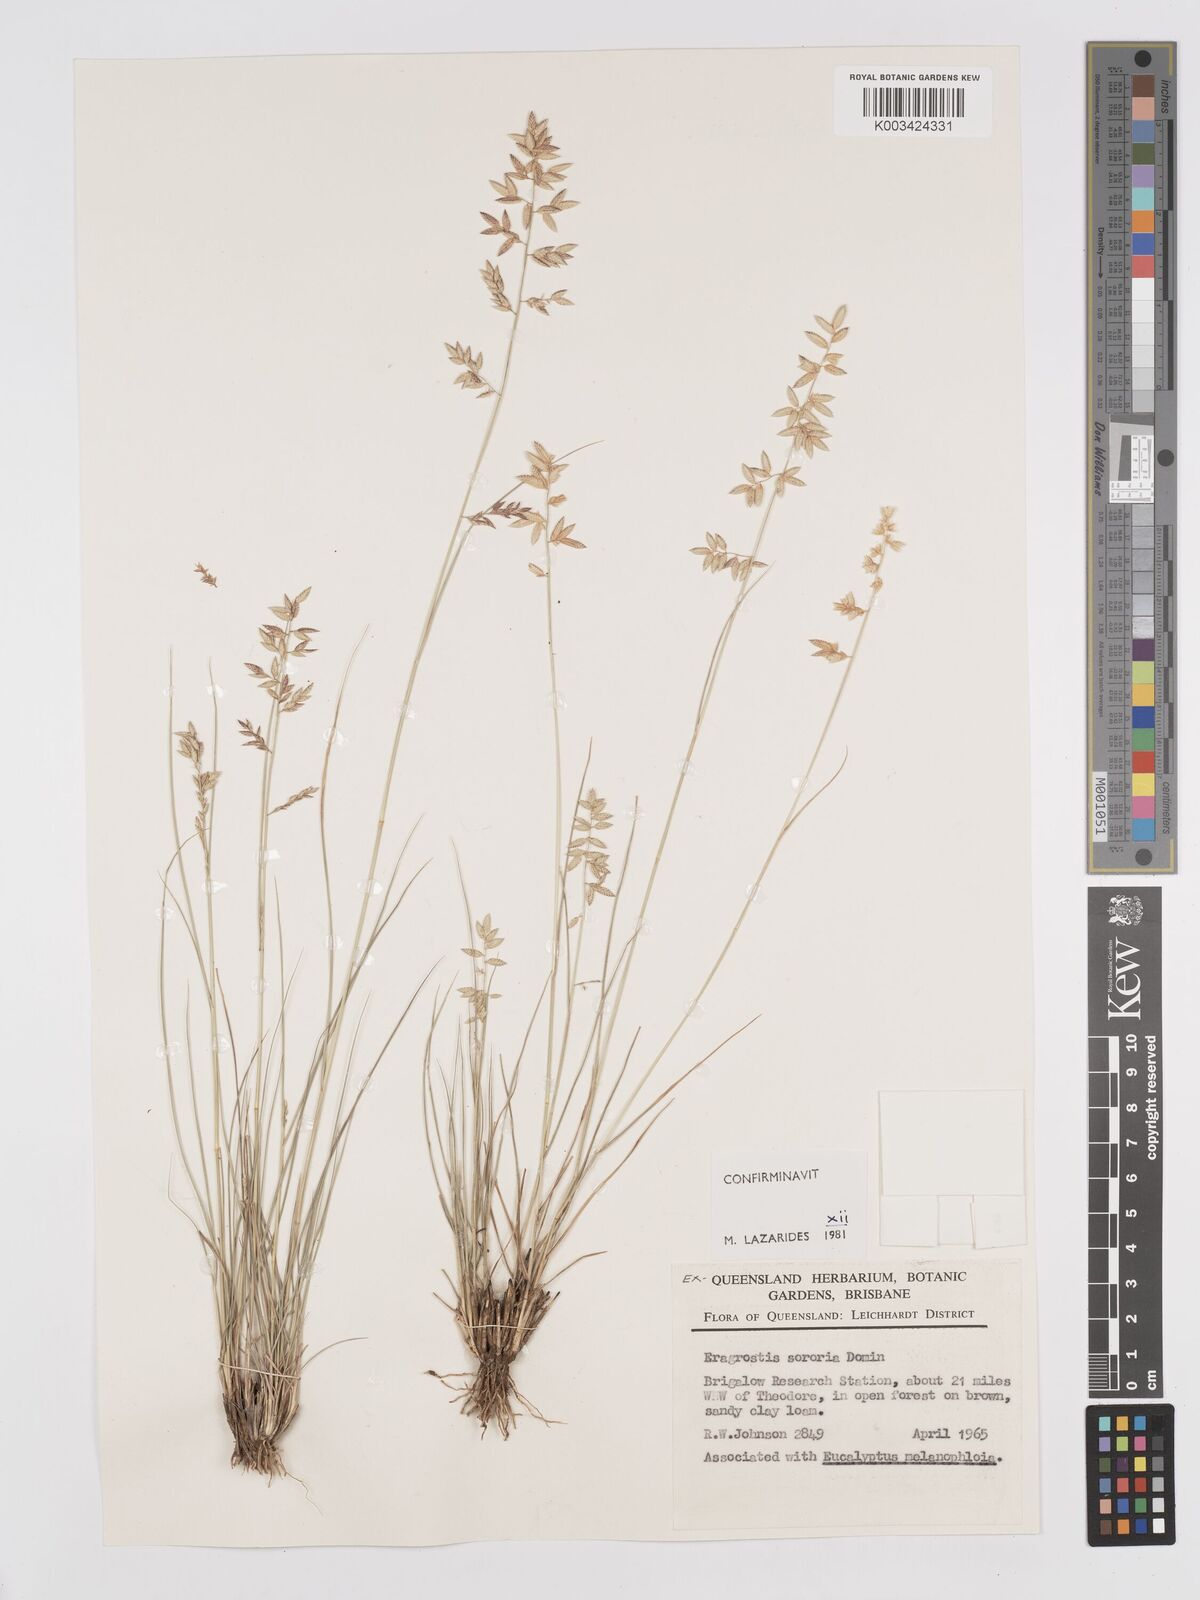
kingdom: Plantae
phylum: Tracheophyta
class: Liliopsida
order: Poales
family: Poaceae
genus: Eragrostis
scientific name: Eragrostis sororia
